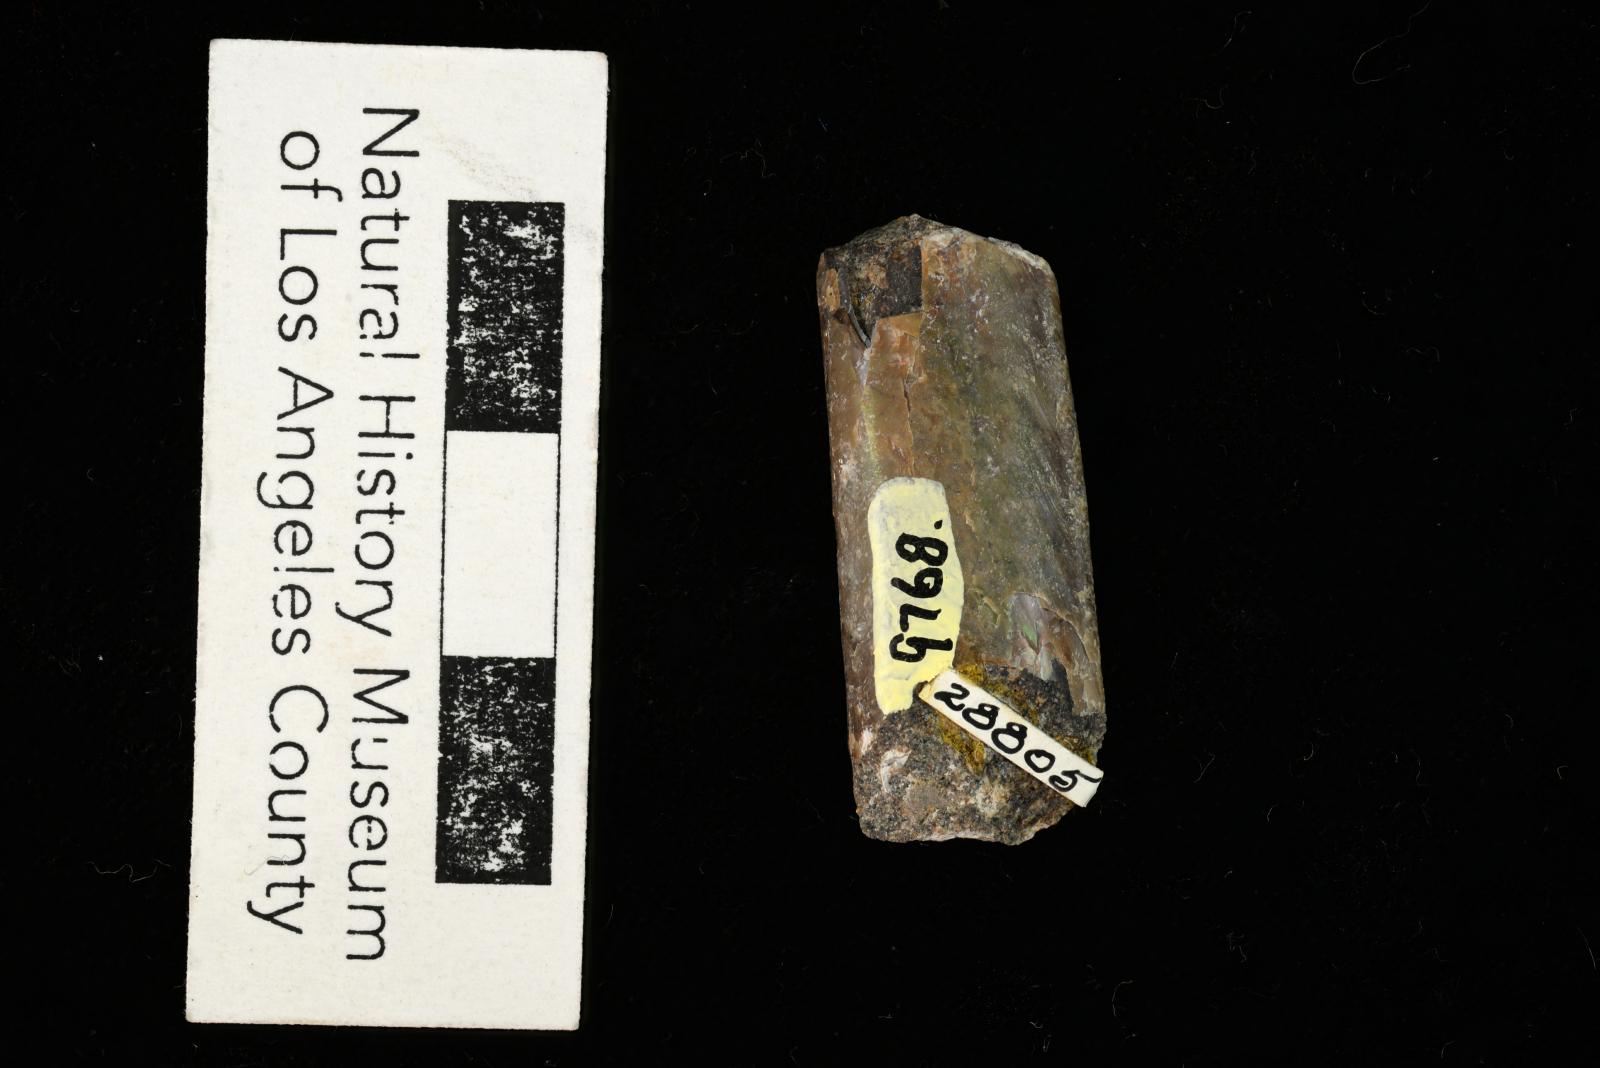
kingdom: Animalia
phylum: Mollusca
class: Cephalopoda
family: Baculitidae
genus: Baculites
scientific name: Baculites kirki
